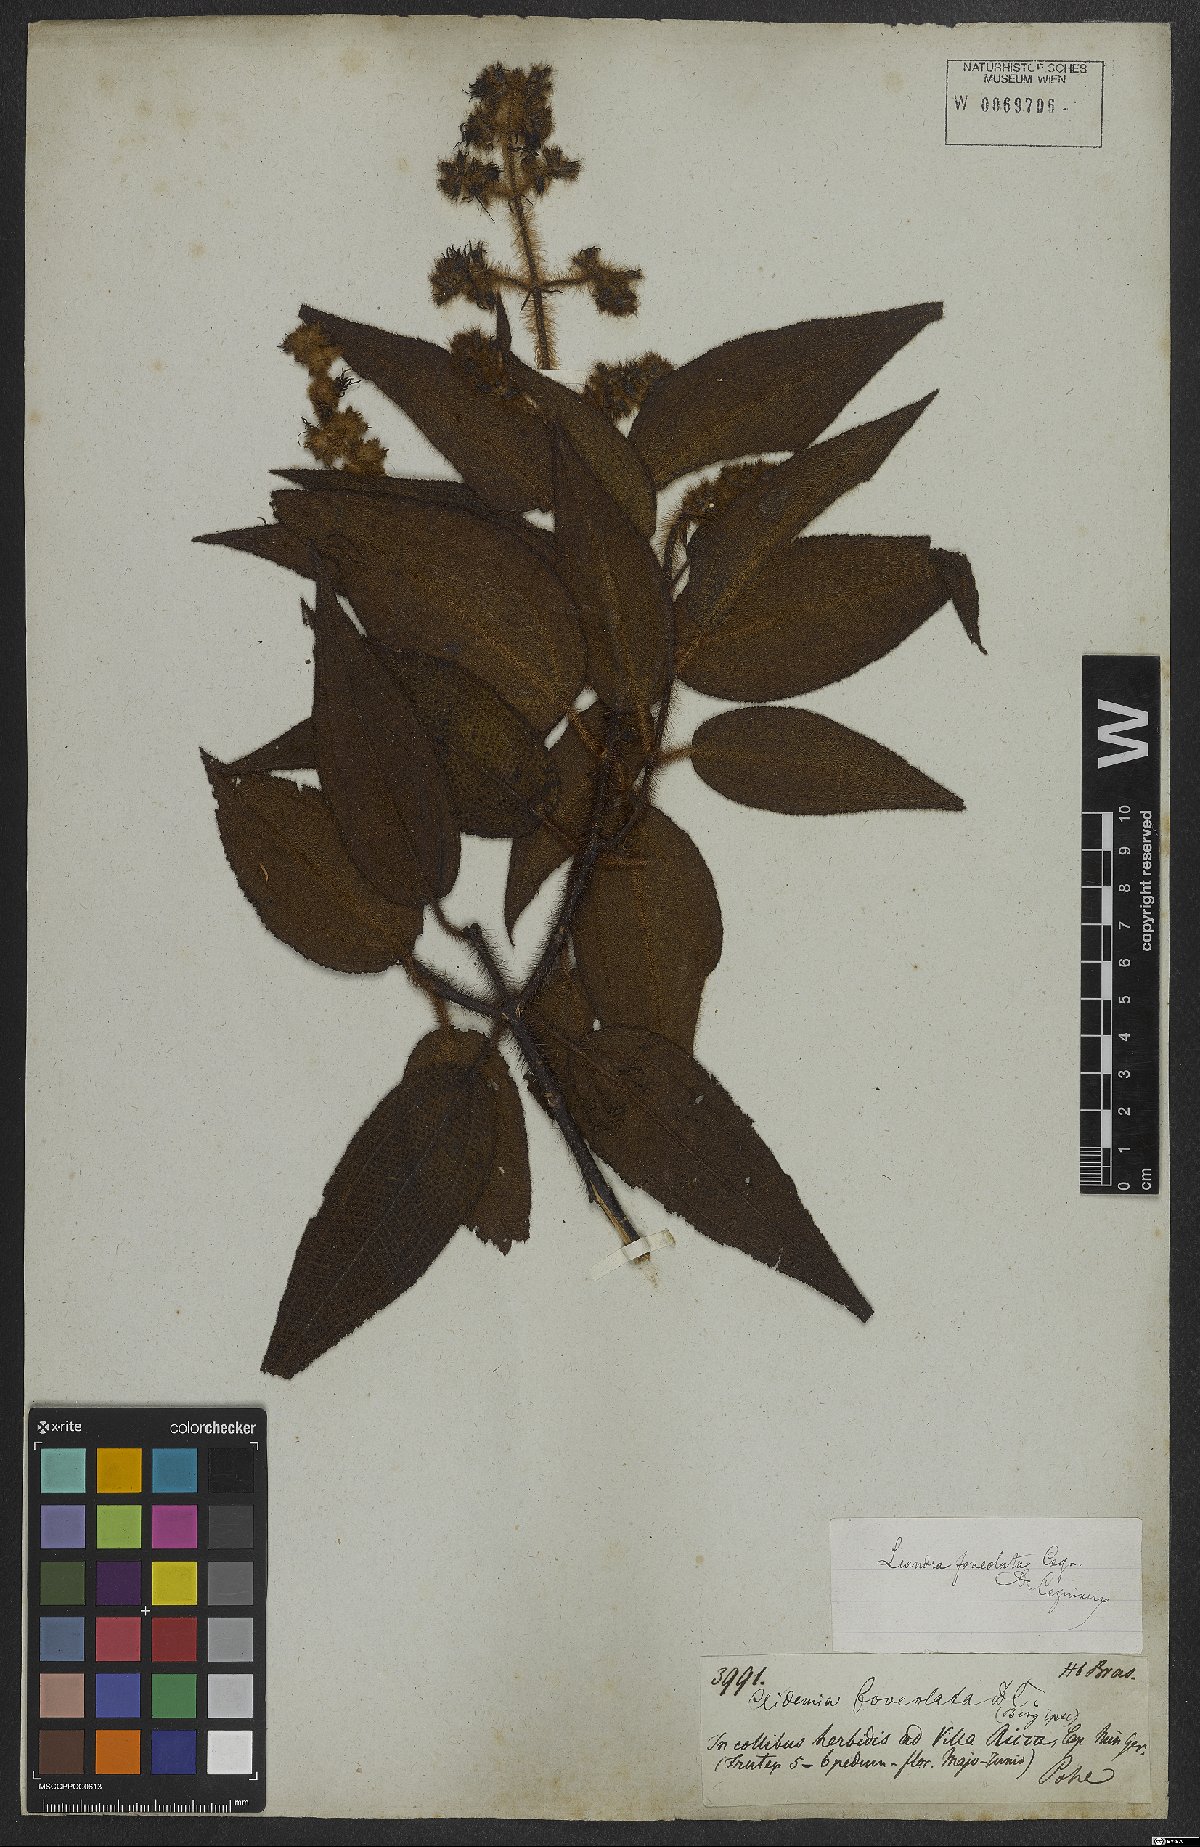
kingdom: Plantae
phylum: Tracheophyta
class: Magnoliopsida
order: Myrtales
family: Melastomataceae
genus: Miconia
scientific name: Miconia leafoveolata
